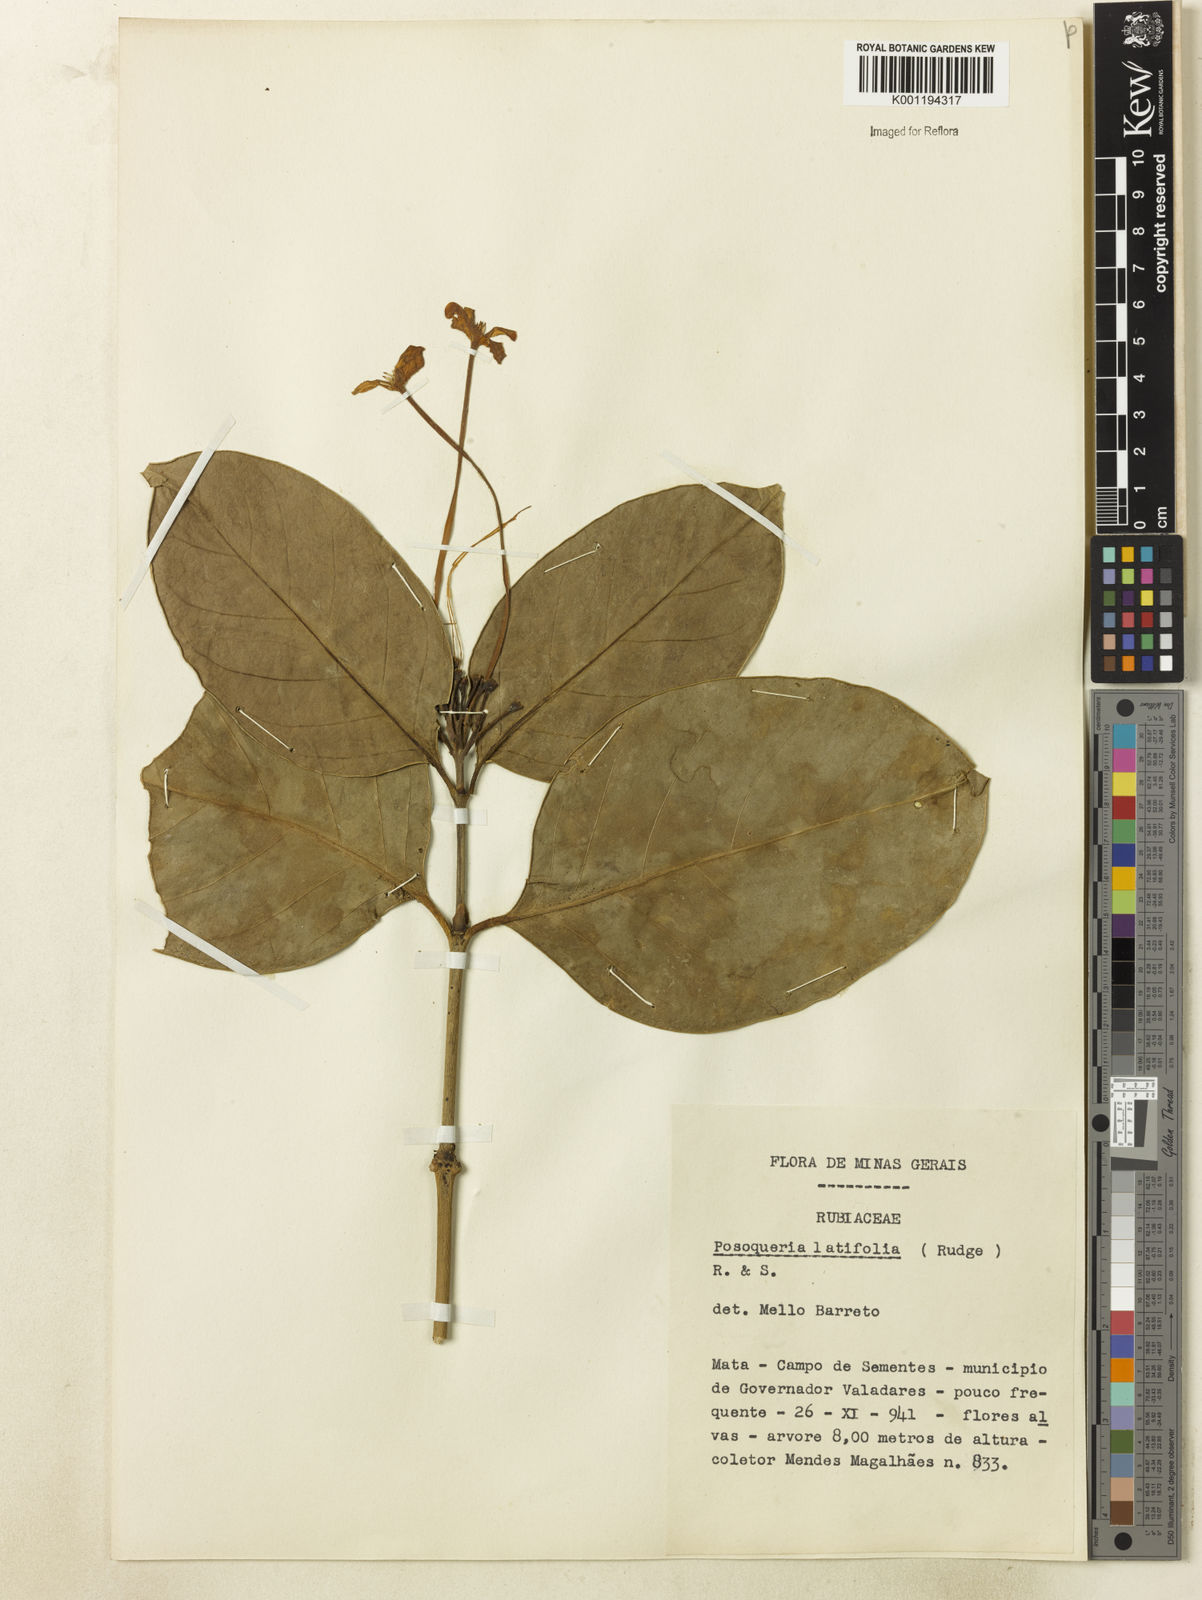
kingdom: Plantae
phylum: Tracheophyta
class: Magnoliopsida
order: Gentianales
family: Rubiaceae
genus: Posoqueria
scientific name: Posoqueria latifolia
